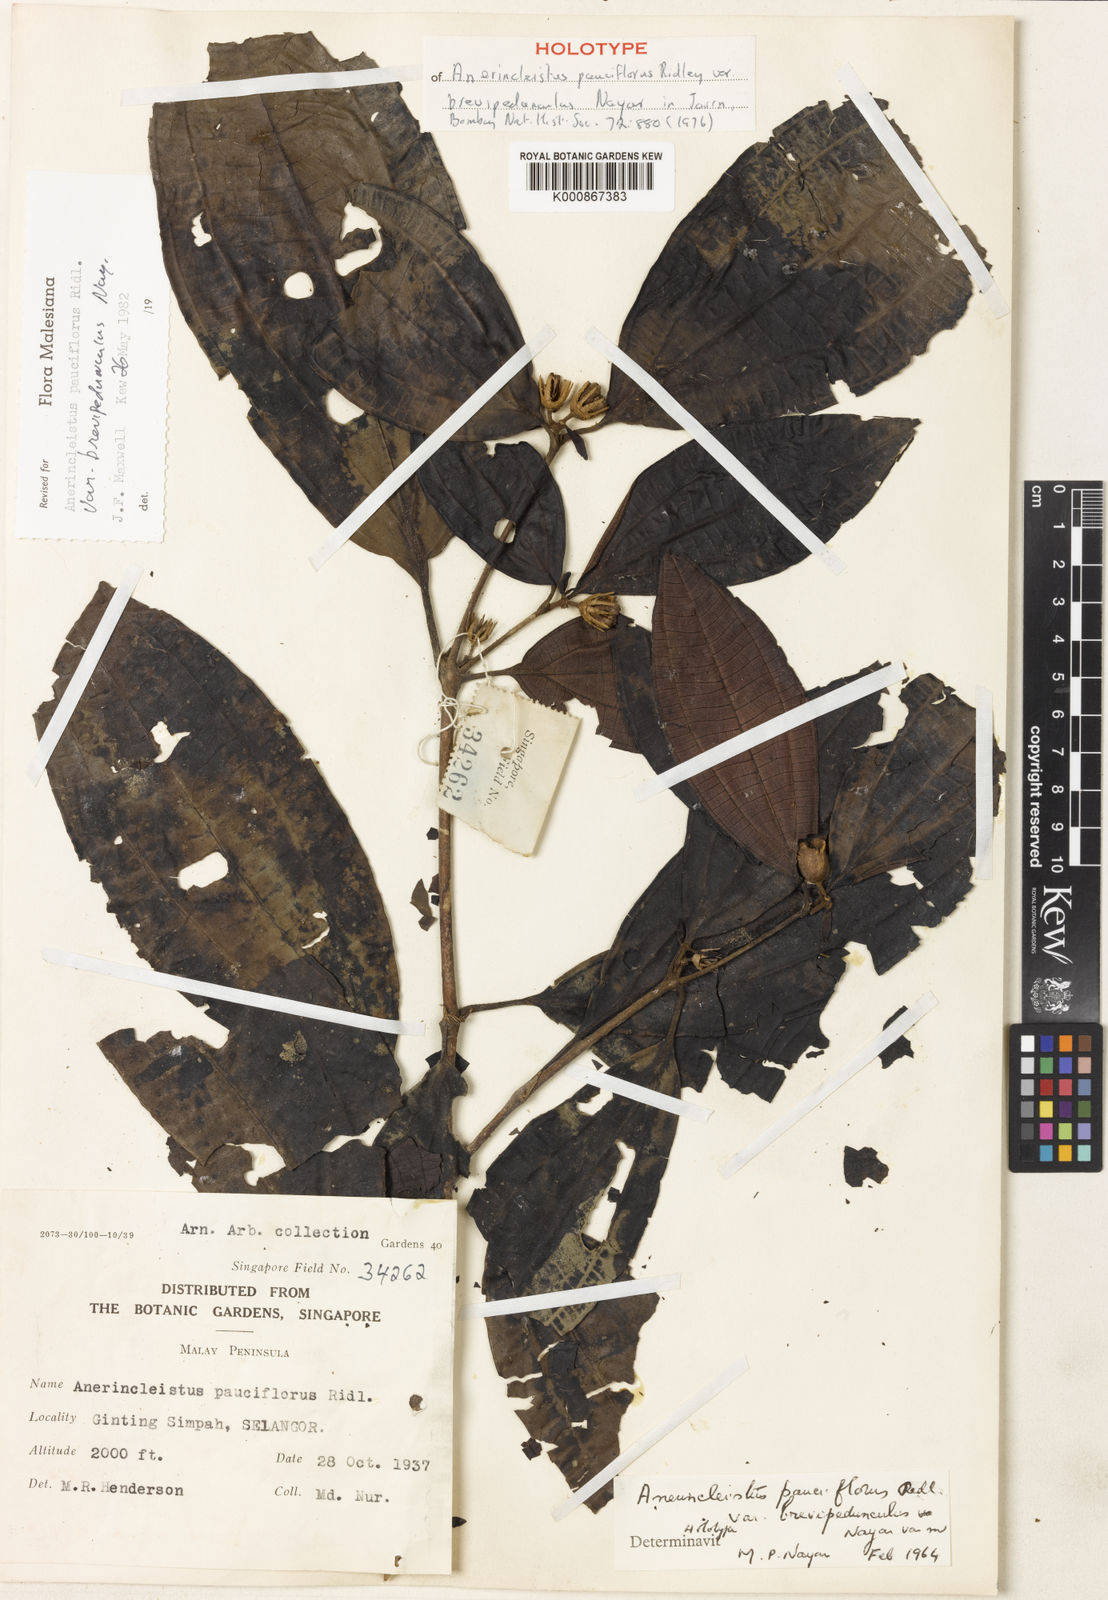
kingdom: Plantae
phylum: Tracheophyta
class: Magnoliopsida
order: Myrtales
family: Melastomataceae
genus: Anerincleistus
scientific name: Anerincleistus pauciflorus
